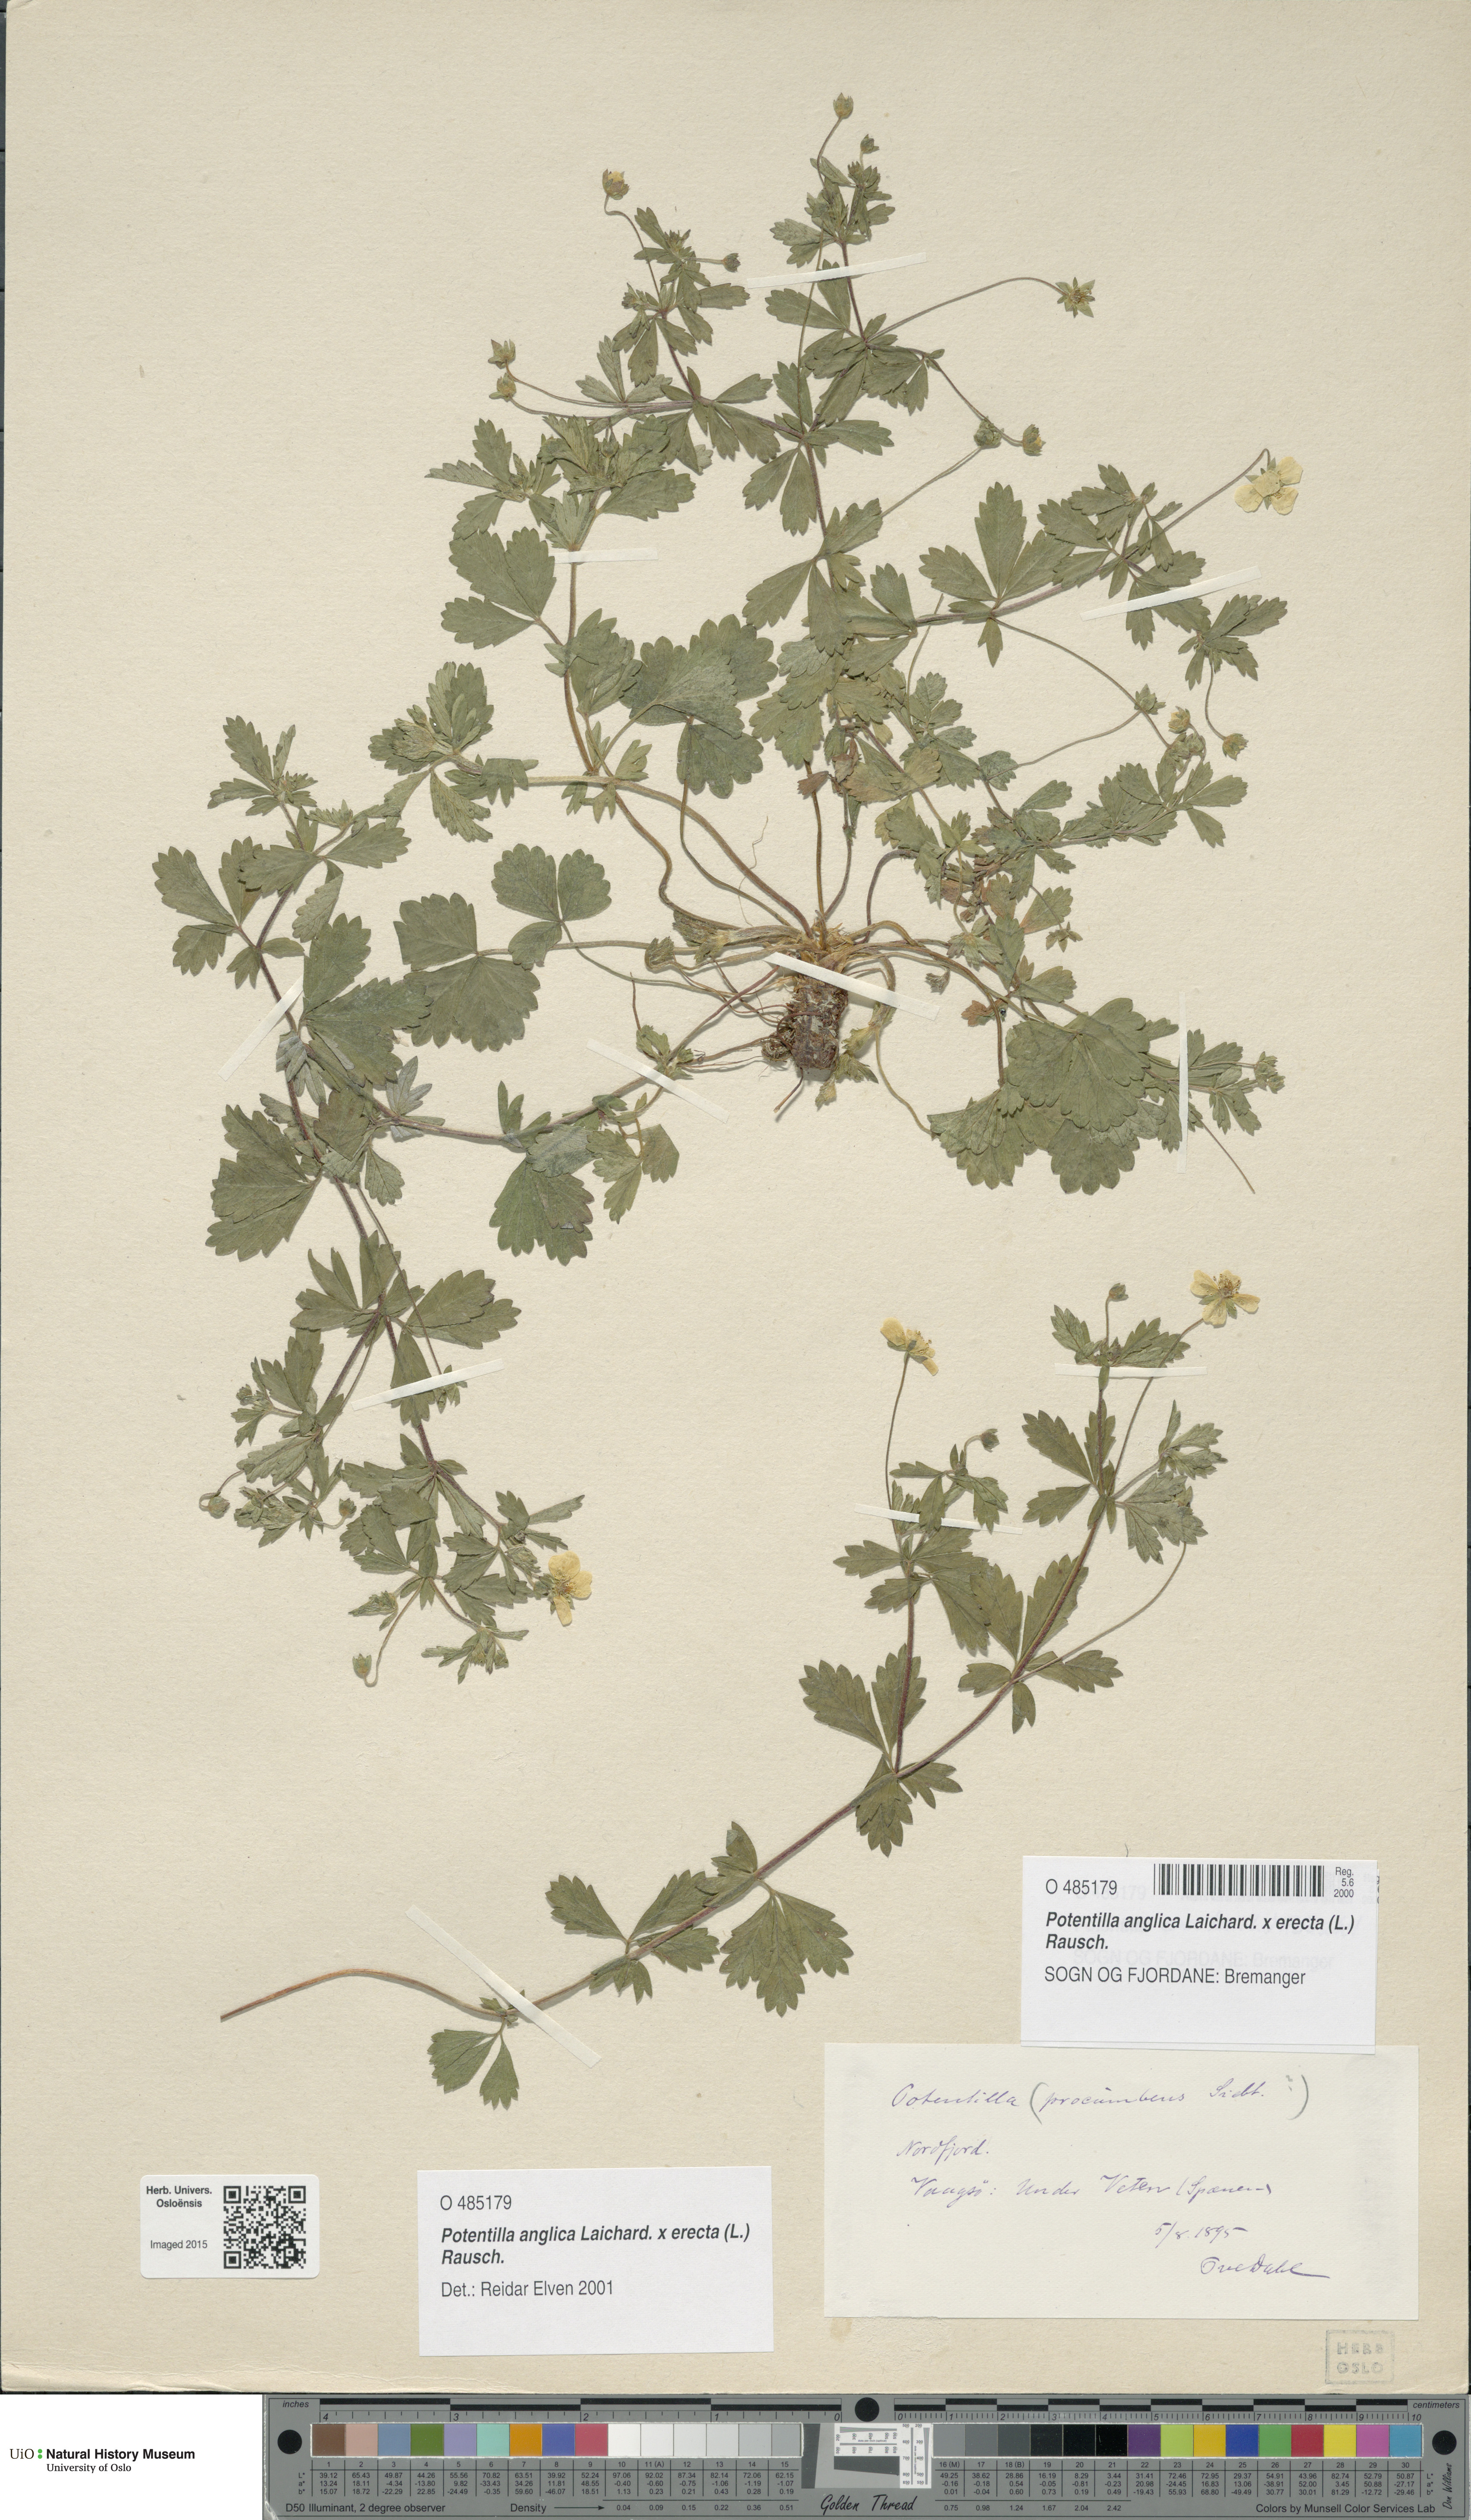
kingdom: Plantae
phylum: Tracheophyta
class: Magnoliopsida
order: Rosales
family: Rosaceae
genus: Potentilla
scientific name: Potentilla
